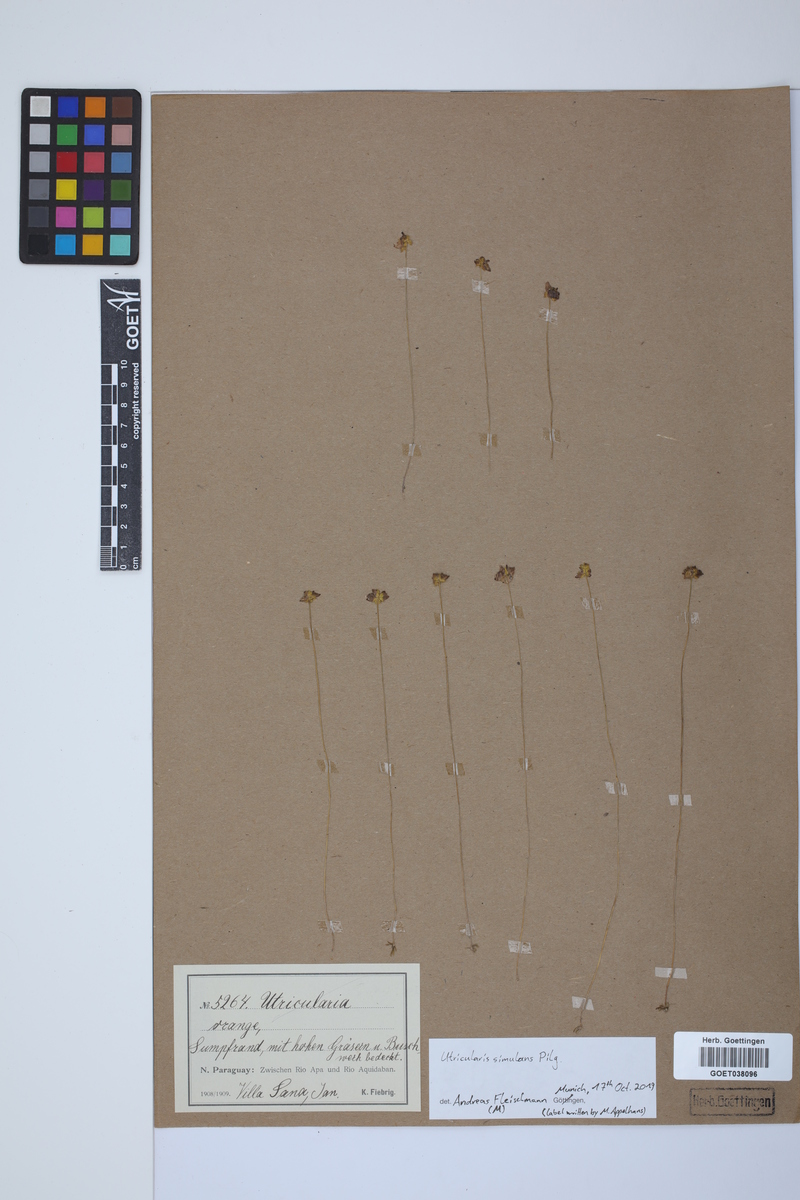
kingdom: Plantae
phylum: Tracheophyta
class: Magnoliopsida
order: Lamiales
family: Lentibulariaceae
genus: Utricularia
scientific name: Utricularia simulans
